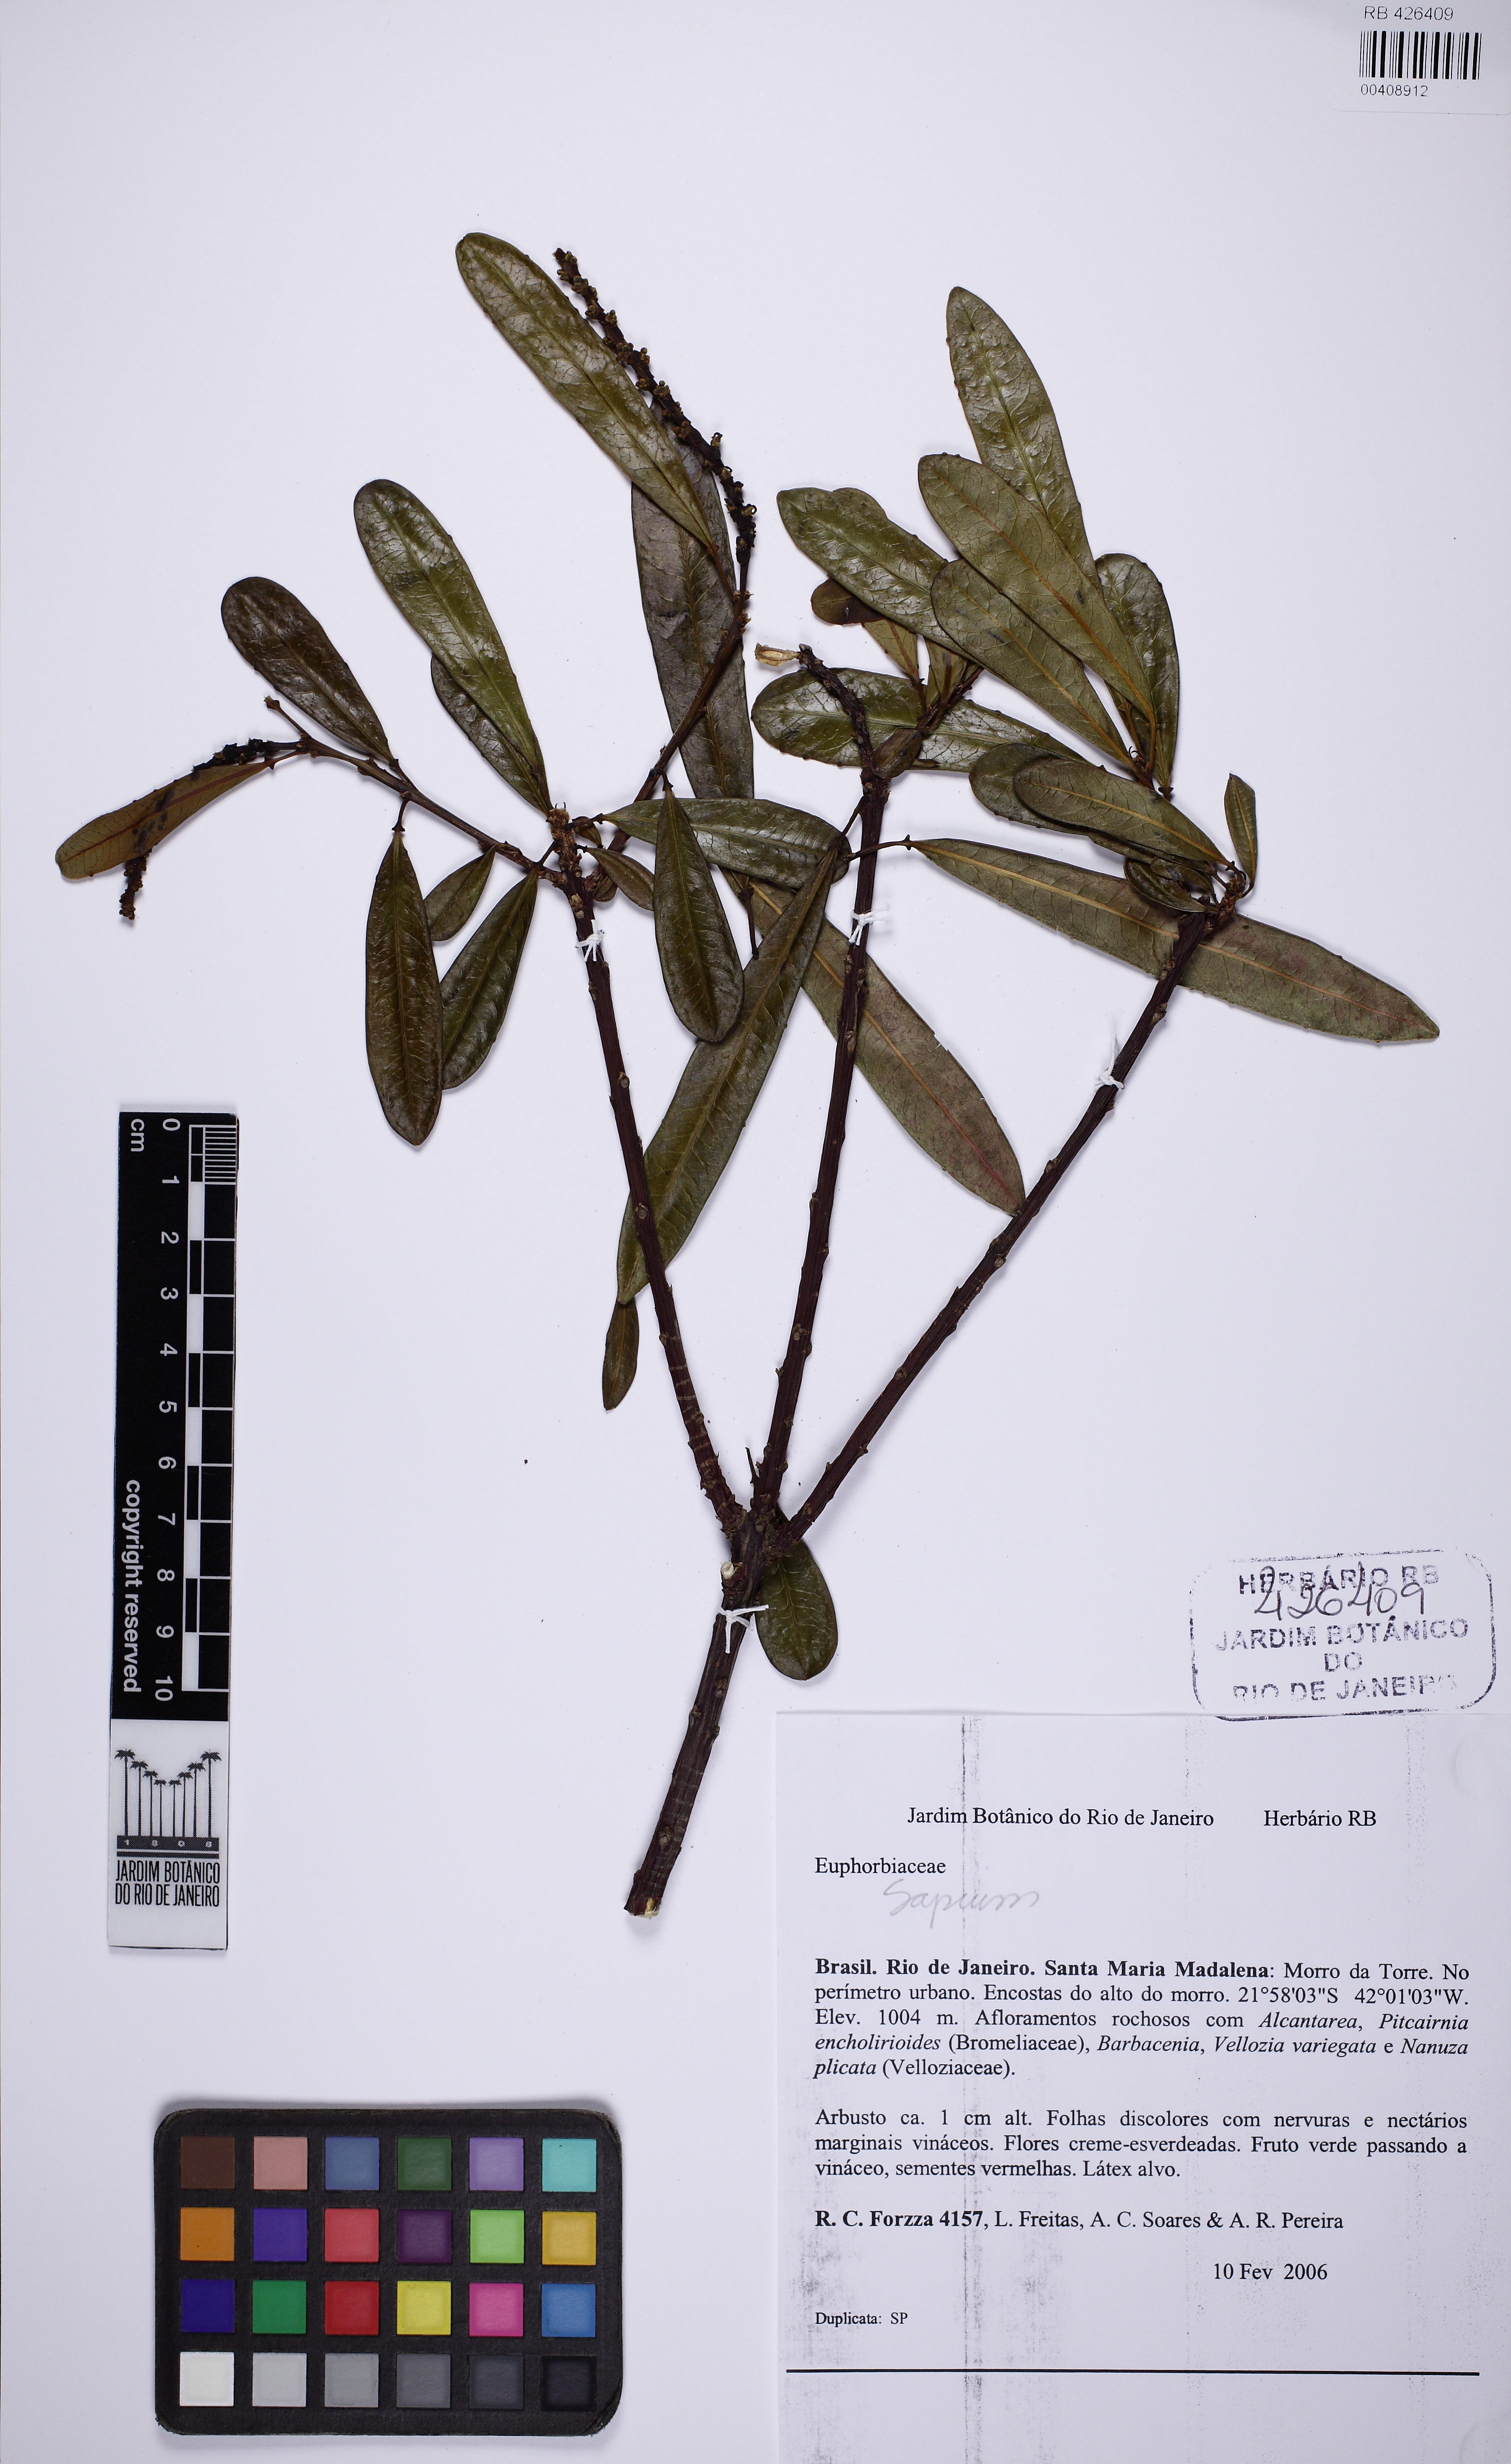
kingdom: Plantae
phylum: Tracheophyta
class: Magnoliopsida
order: Malpighiales
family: Euphorbiaceae
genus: Sapium
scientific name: Sapium
